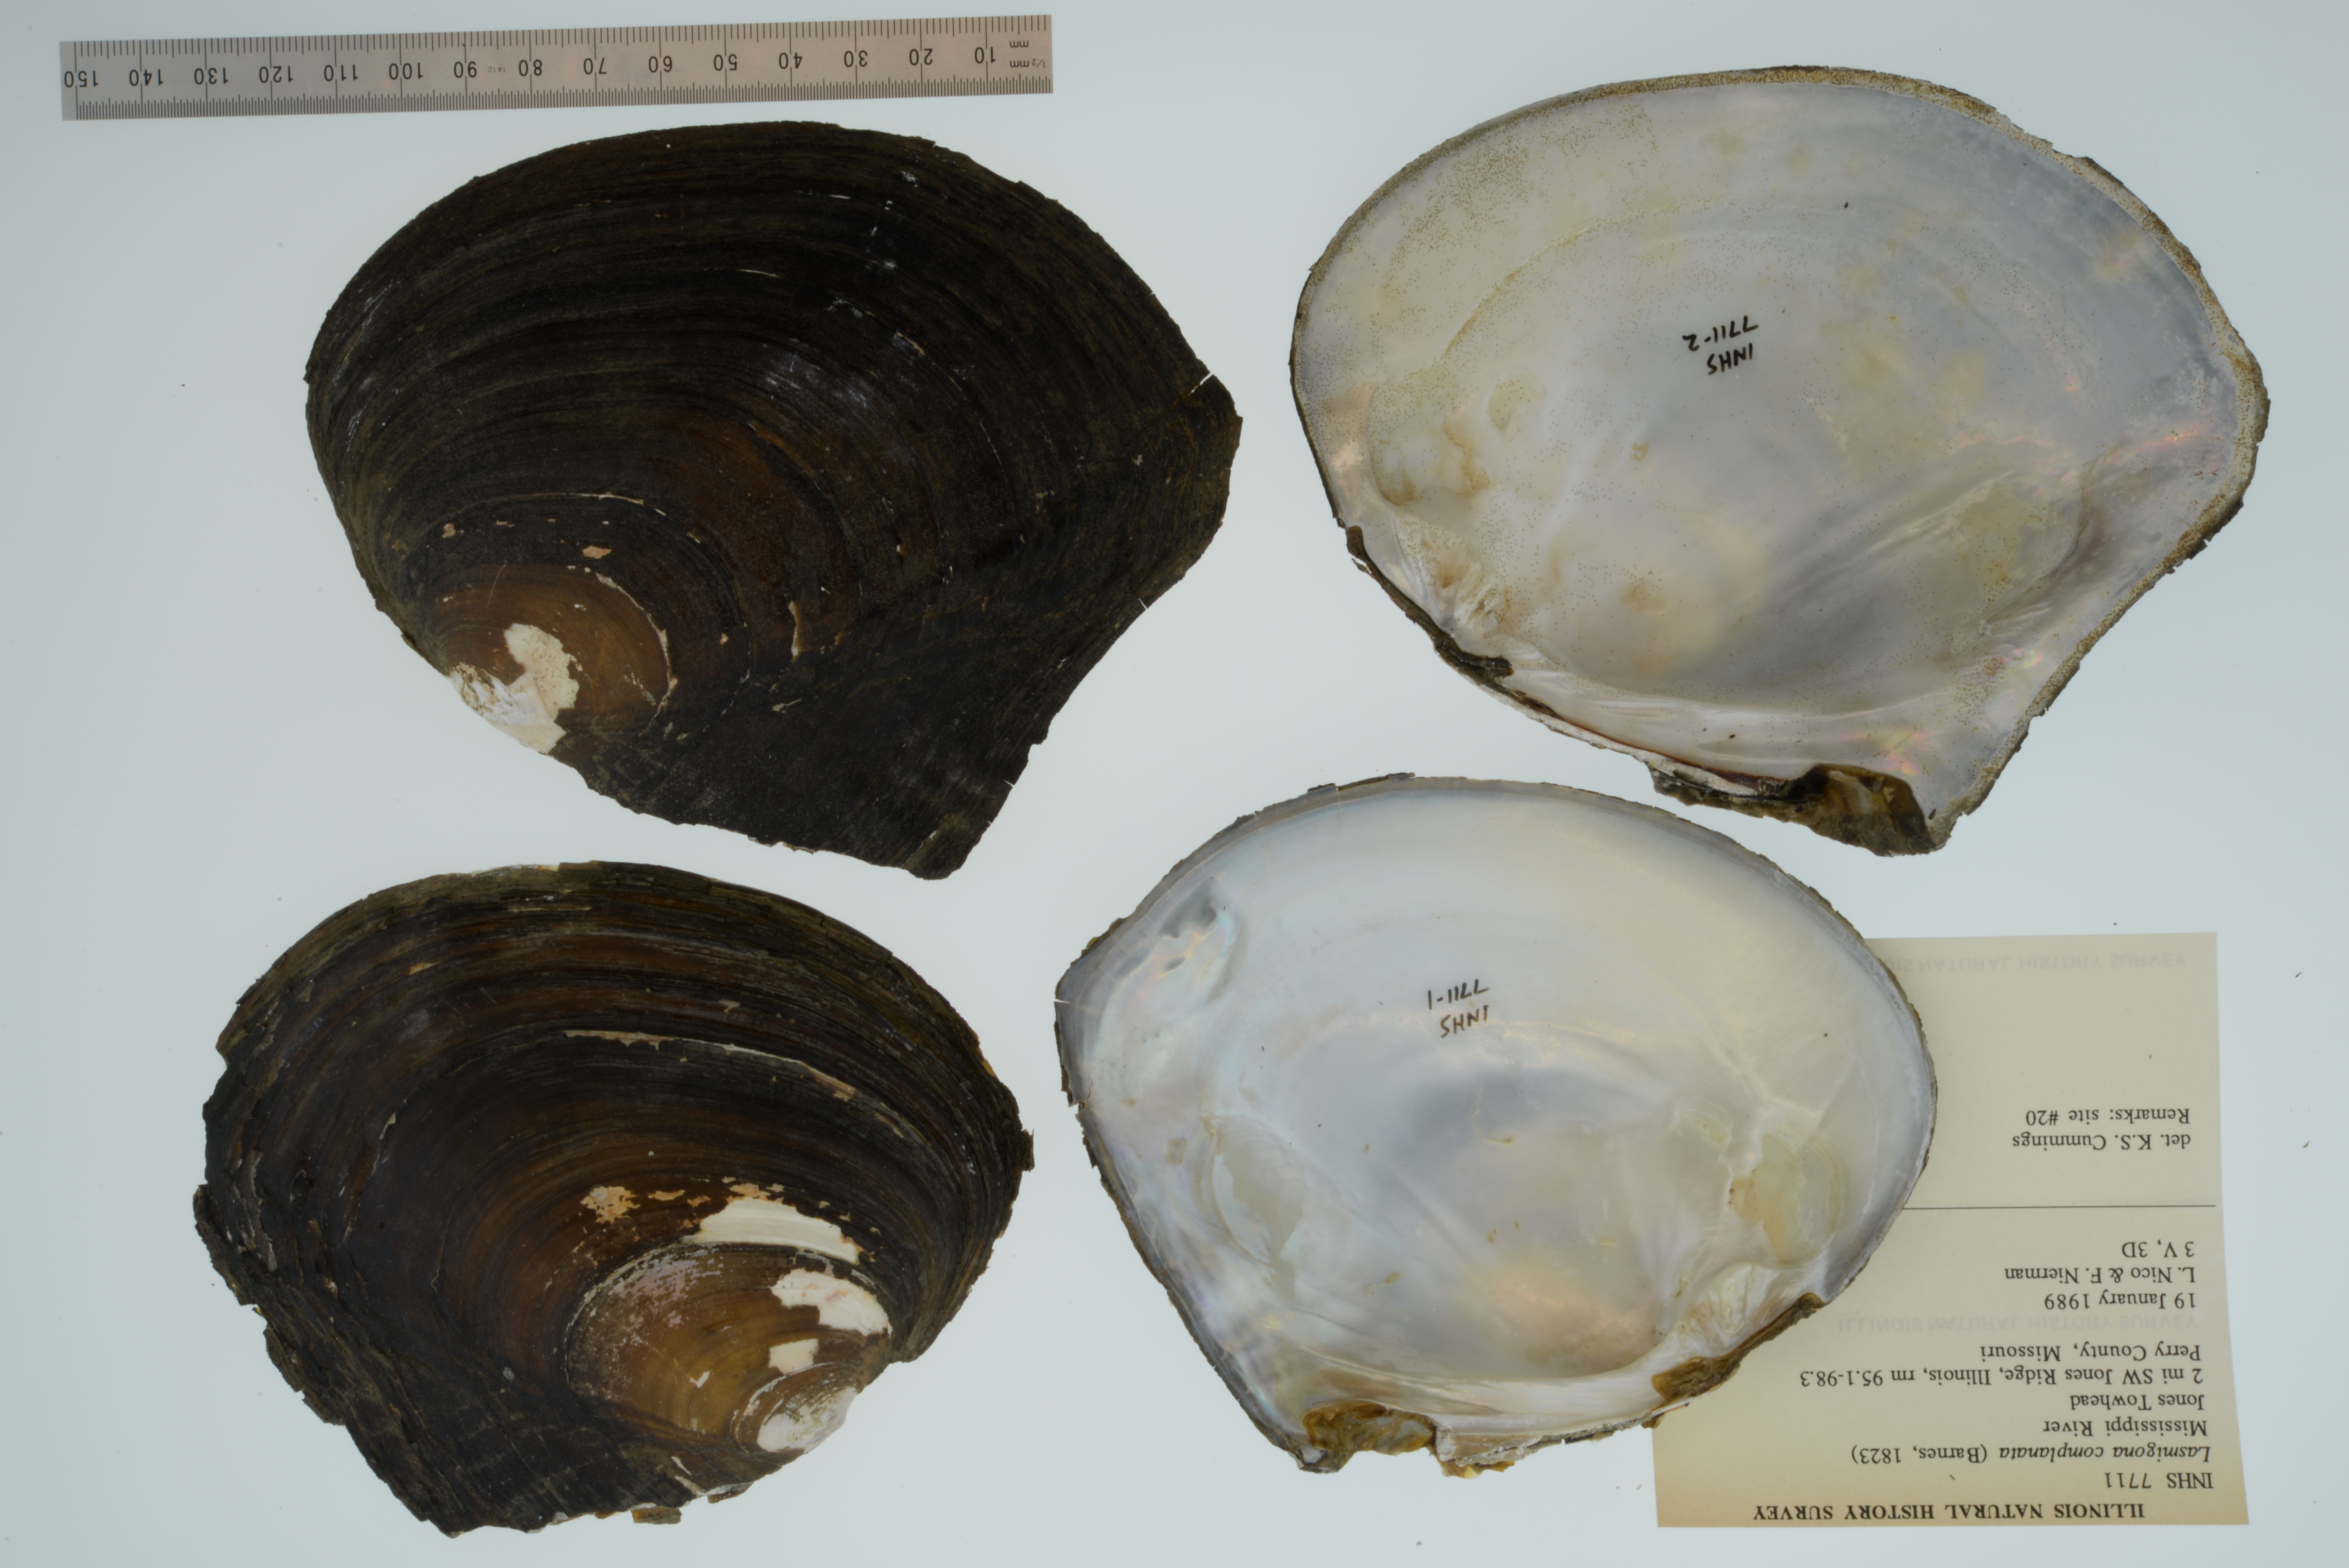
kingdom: Animalia
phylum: Mollusca
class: Bivalvia
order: Unionida
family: Unionidae
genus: Lasmigona
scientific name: Lasmigona complanata
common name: White heelsplitter
